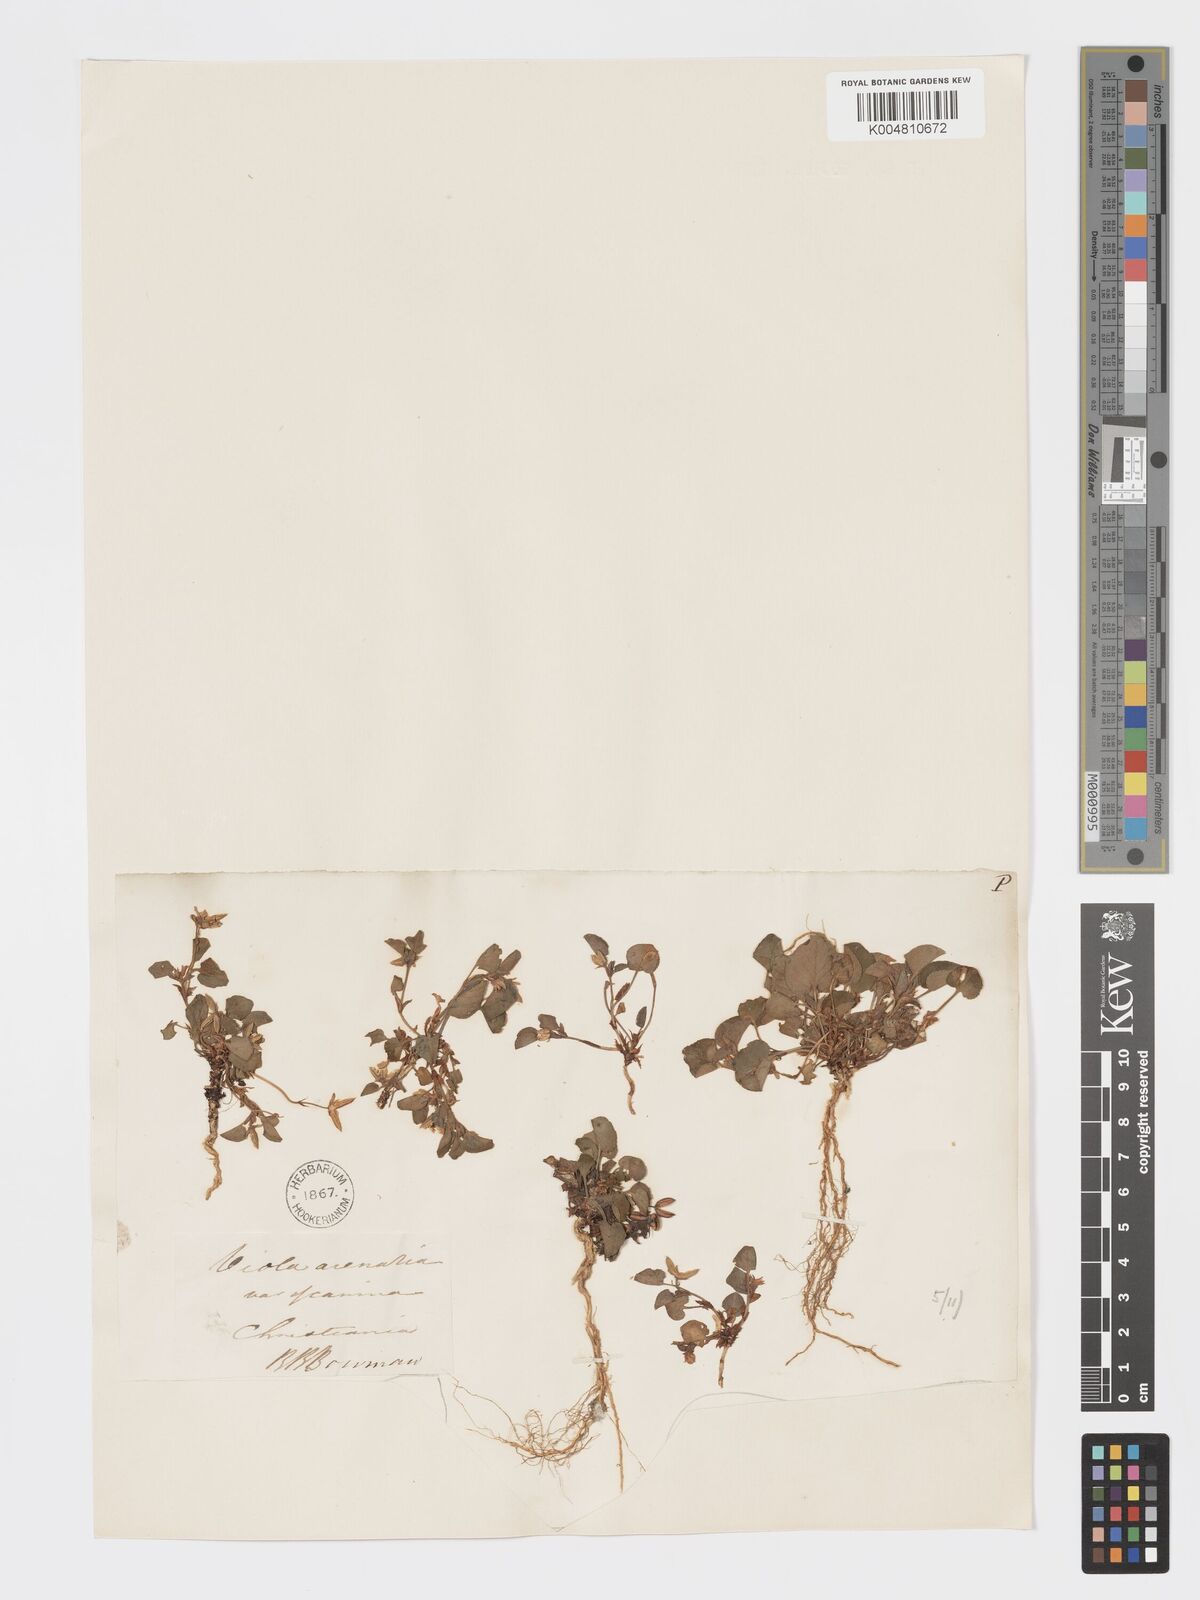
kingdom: Plantae
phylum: Tracheophyta
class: Magnoliopsida
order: Malpighiales
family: Violaceae
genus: Viola
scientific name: Viola rupestris
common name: Teesdale violet
